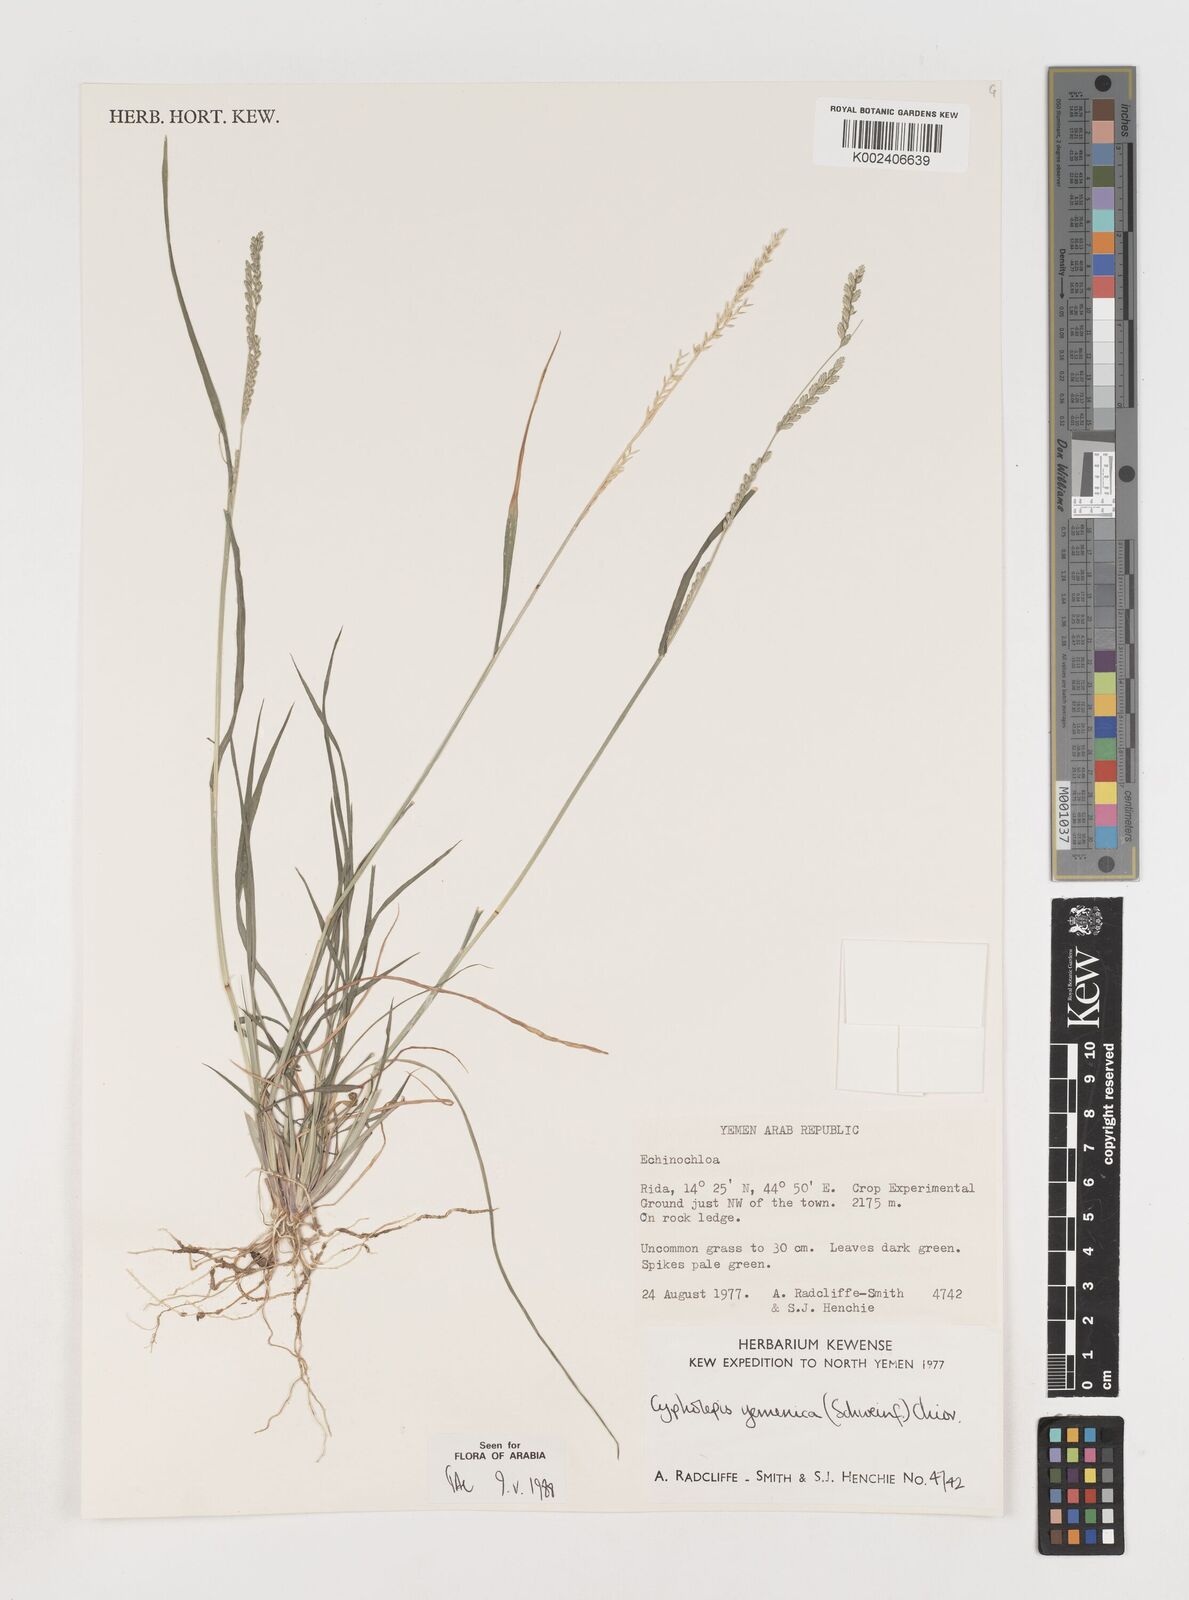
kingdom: Plantae
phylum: Tracheophyta
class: Liliopsida
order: Poales
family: Poaceae
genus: Disakisperma
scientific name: Disakisperma yemenicum
